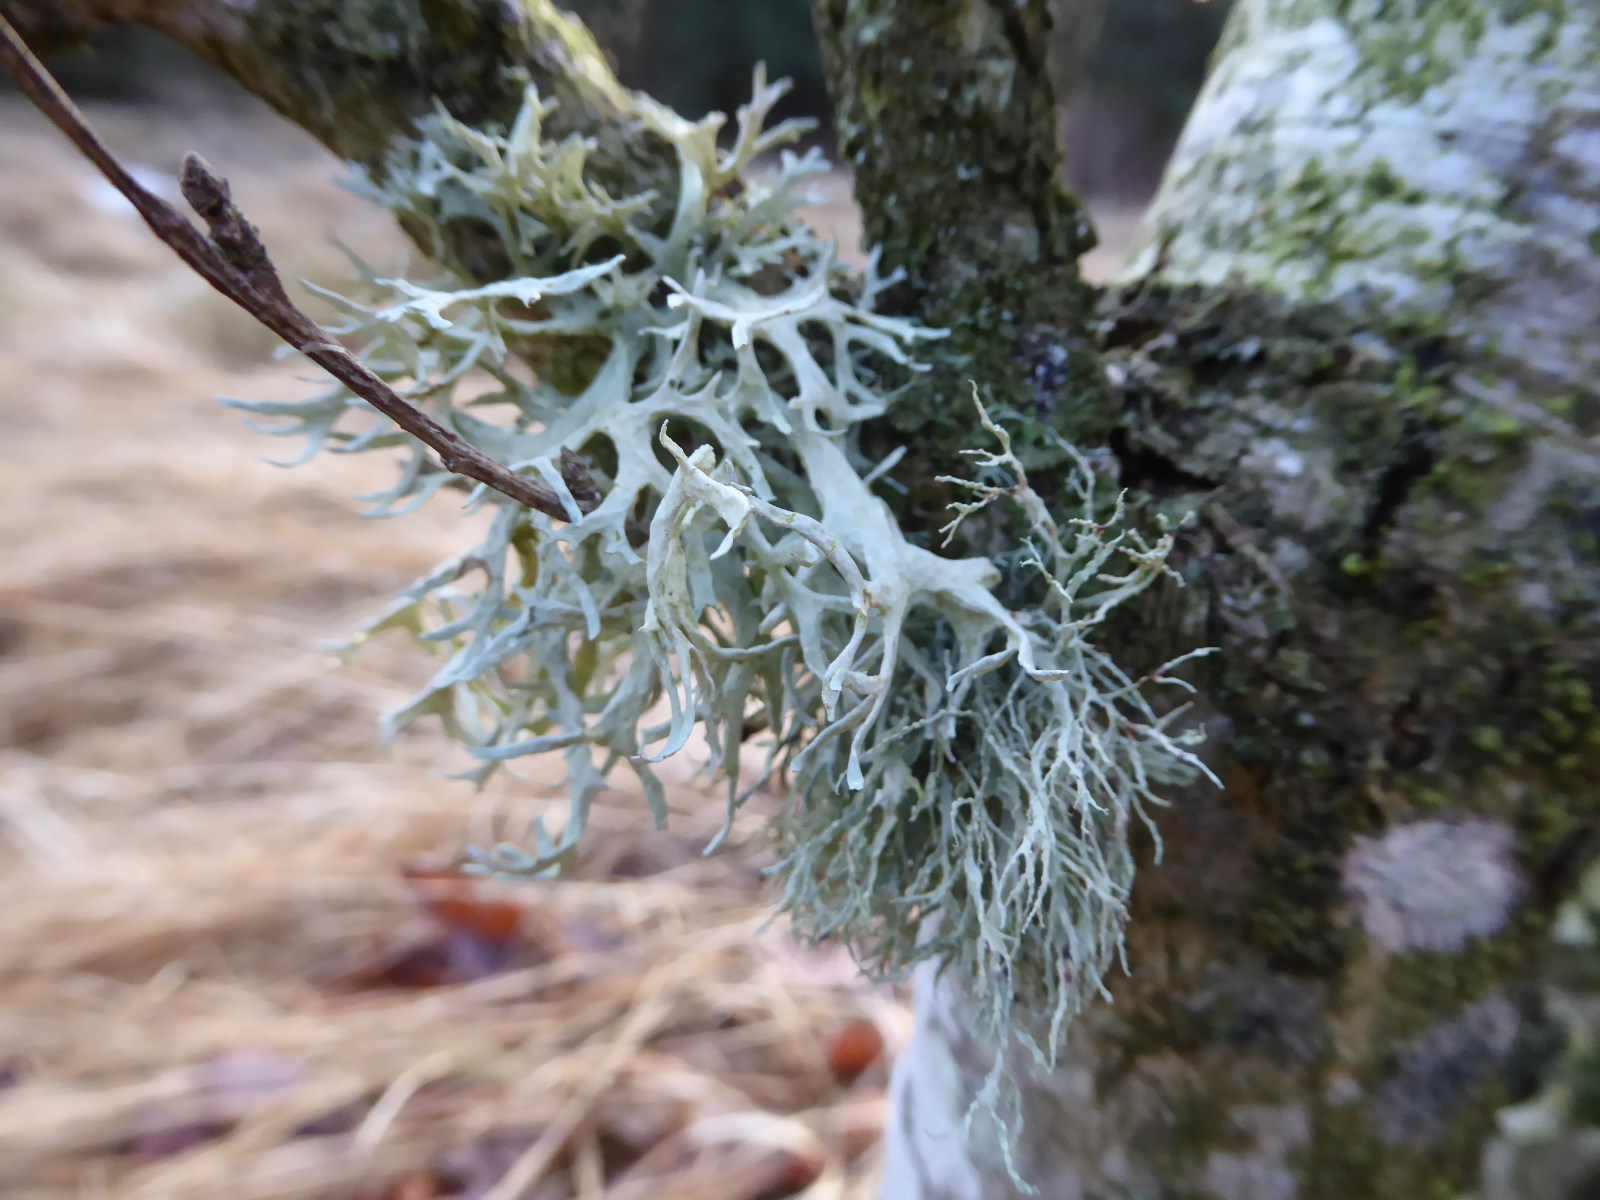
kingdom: Fungi
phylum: Ascomycota
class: Lecanoromycetes
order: Lecanorales
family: Parmeliaceae
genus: Evernia
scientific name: Evernia prunastri
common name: almindelig slåenlav
